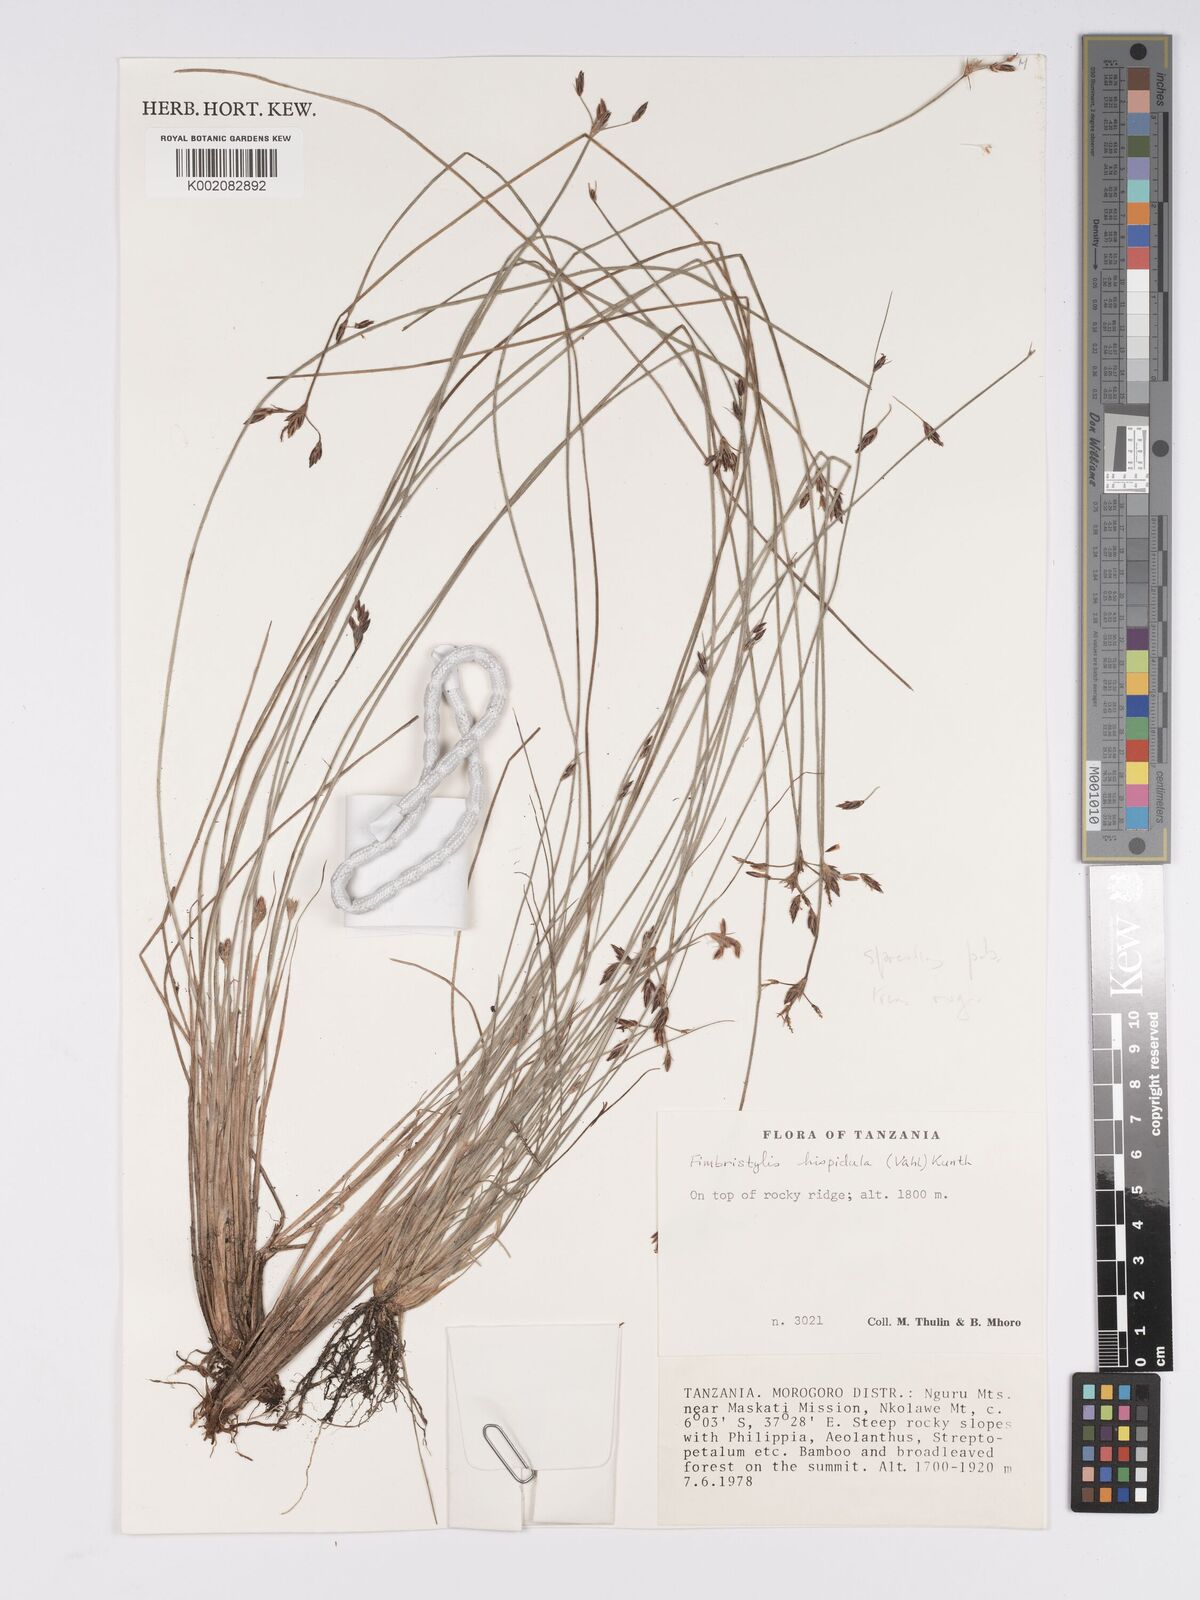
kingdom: Plantae
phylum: Tracheophyta
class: Liliopsida
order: Poales
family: Cyperaceae
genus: Bulbostylis
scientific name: Bulbostylis hispidula
